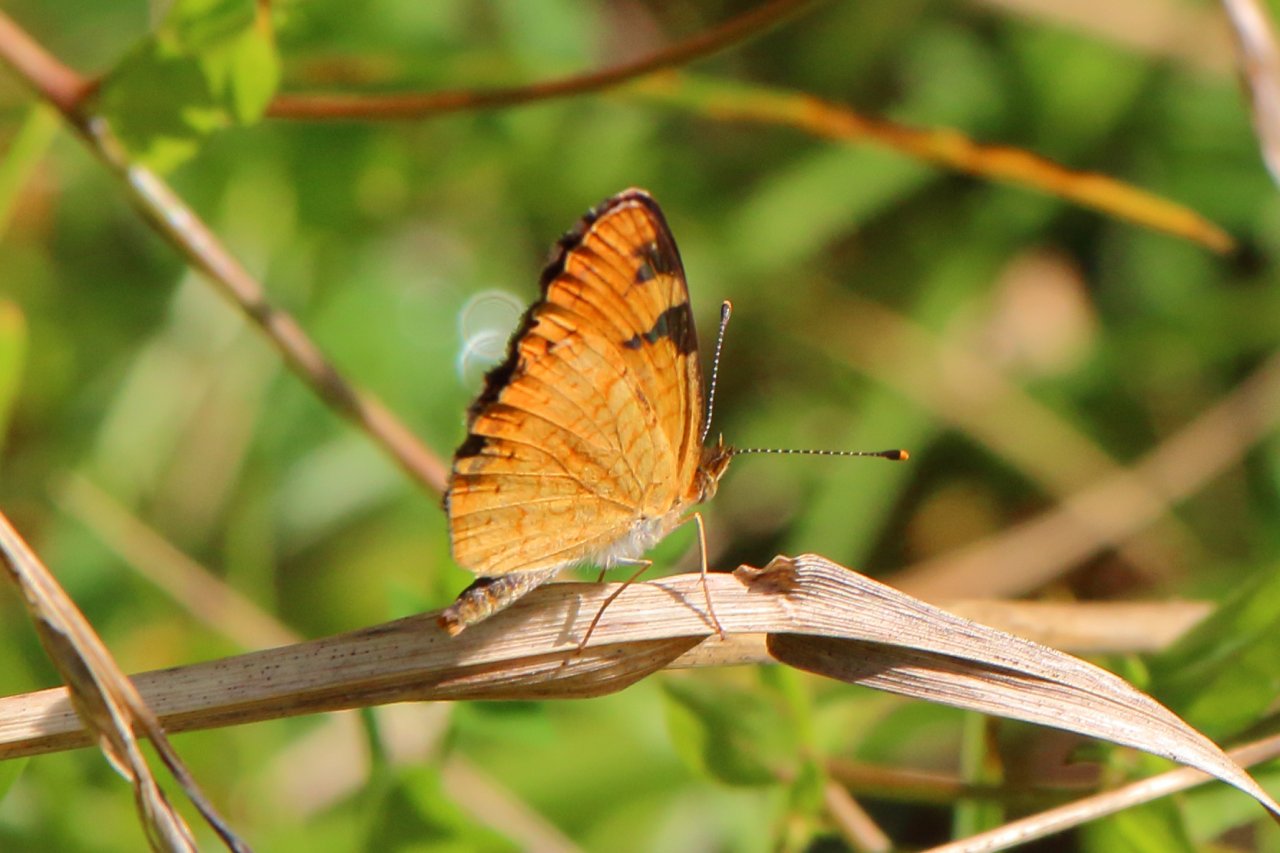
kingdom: Animalia
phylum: Arthropoda
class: Insecta
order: Lepidoptera
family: Nymphalidae
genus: Phyciodes
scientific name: Phyciodes tharos
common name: Northern Crescent
